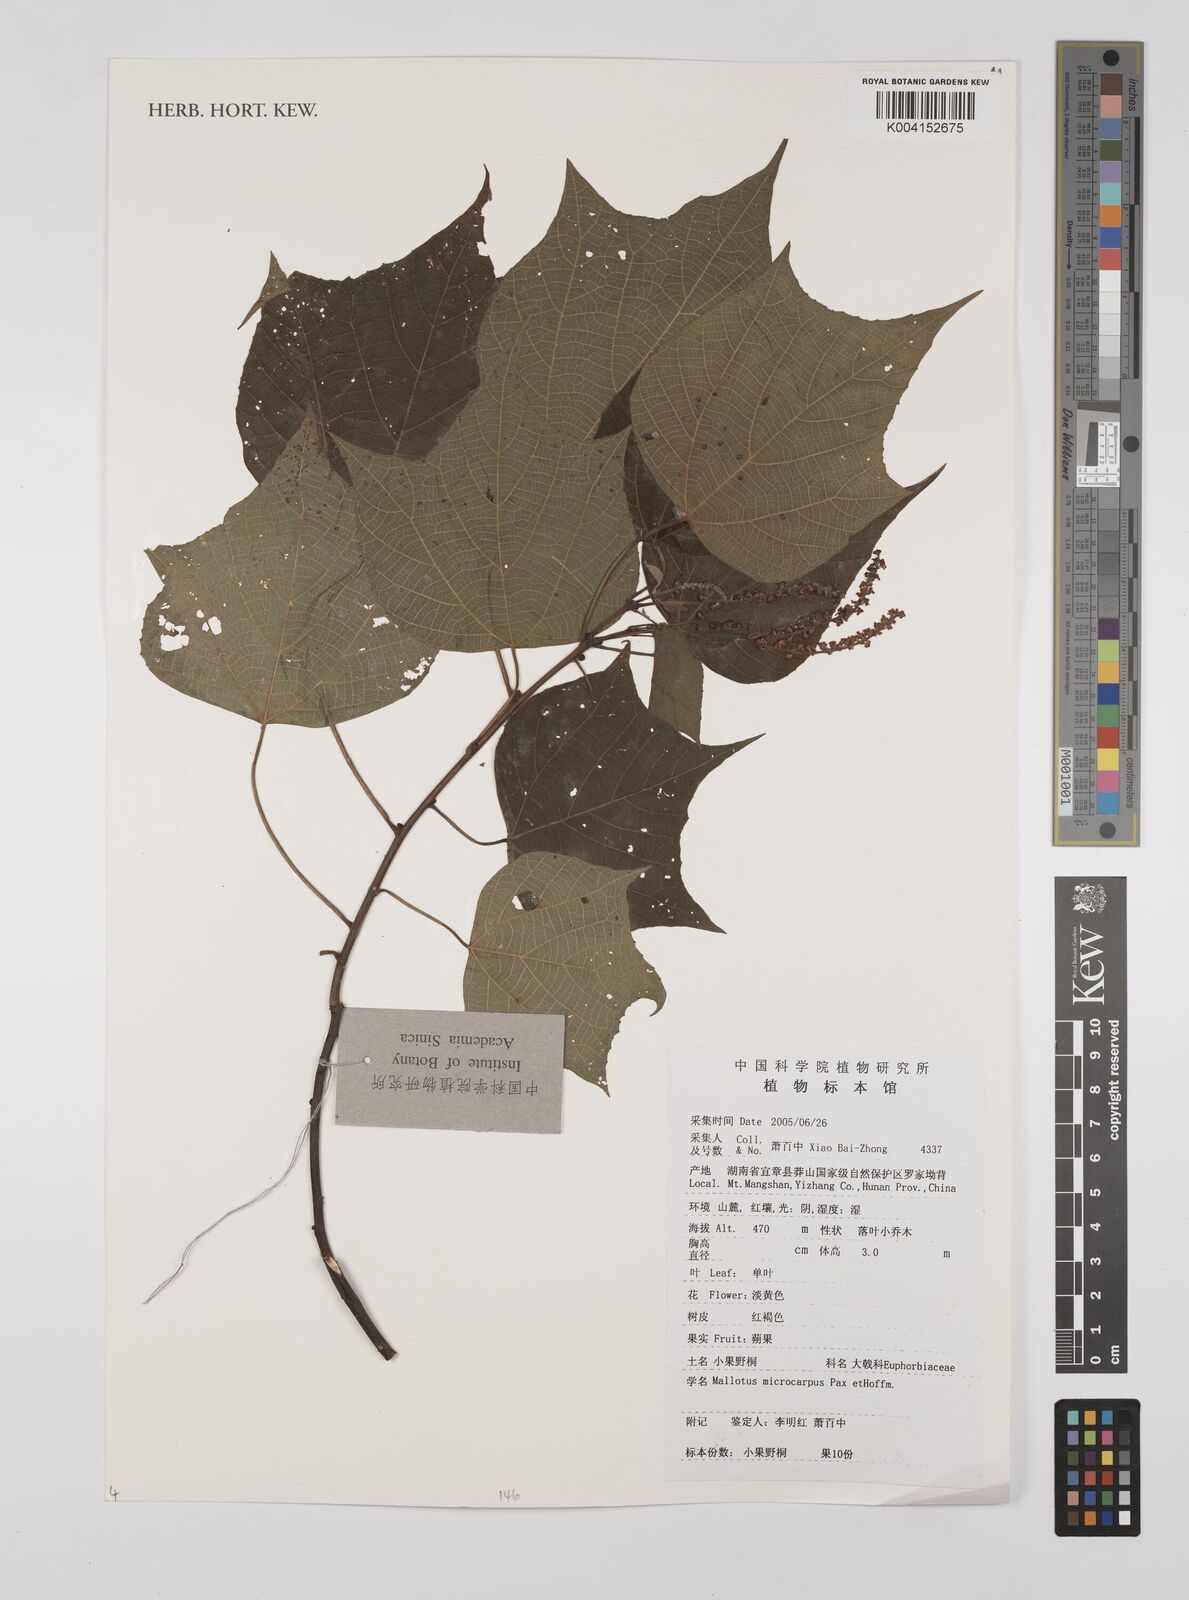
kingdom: Plantae
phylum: Tracheophyta
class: Magnoliopsida
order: Malpighiales
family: Euphorbiaceae
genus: Mallotus
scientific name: Mallotus microcarpus
